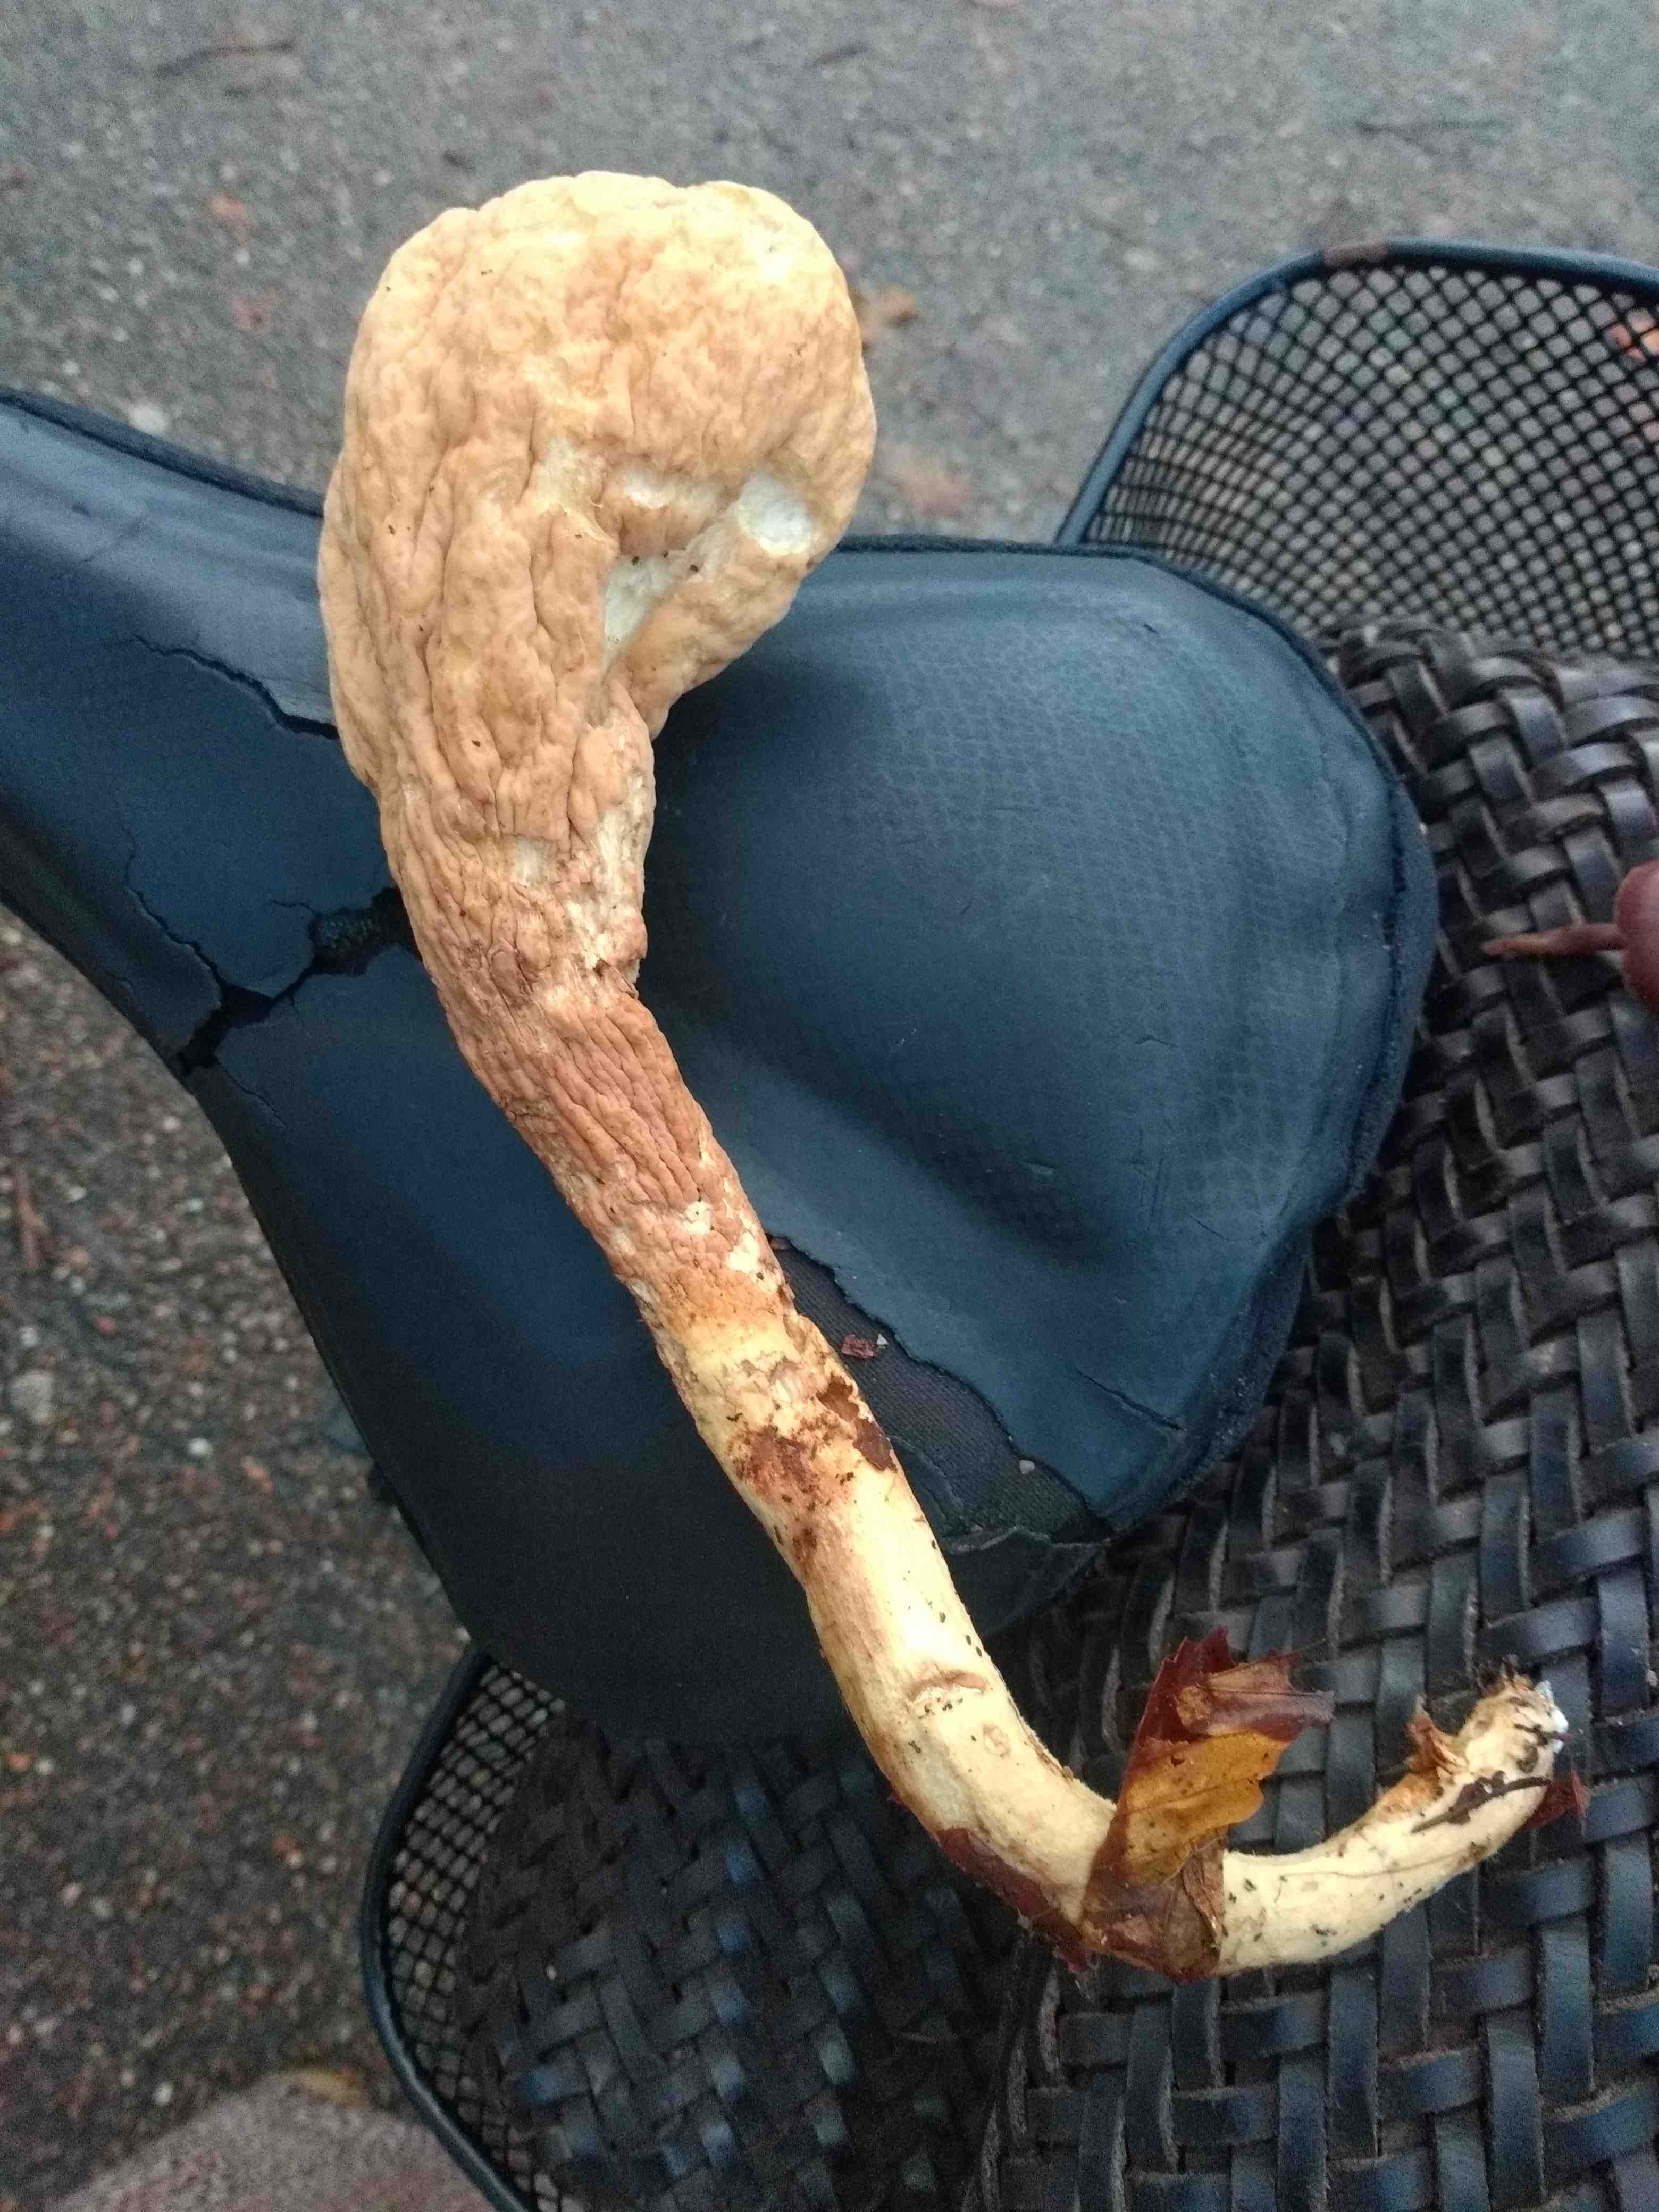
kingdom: Fungi
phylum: Basidiomycota
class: Agaricomycetes
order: Gomphales
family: Clavariadelphaceae
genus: Clavariadelphus
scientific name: Clavariadelphus pistillaris
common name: herkules-kæmpekølle
